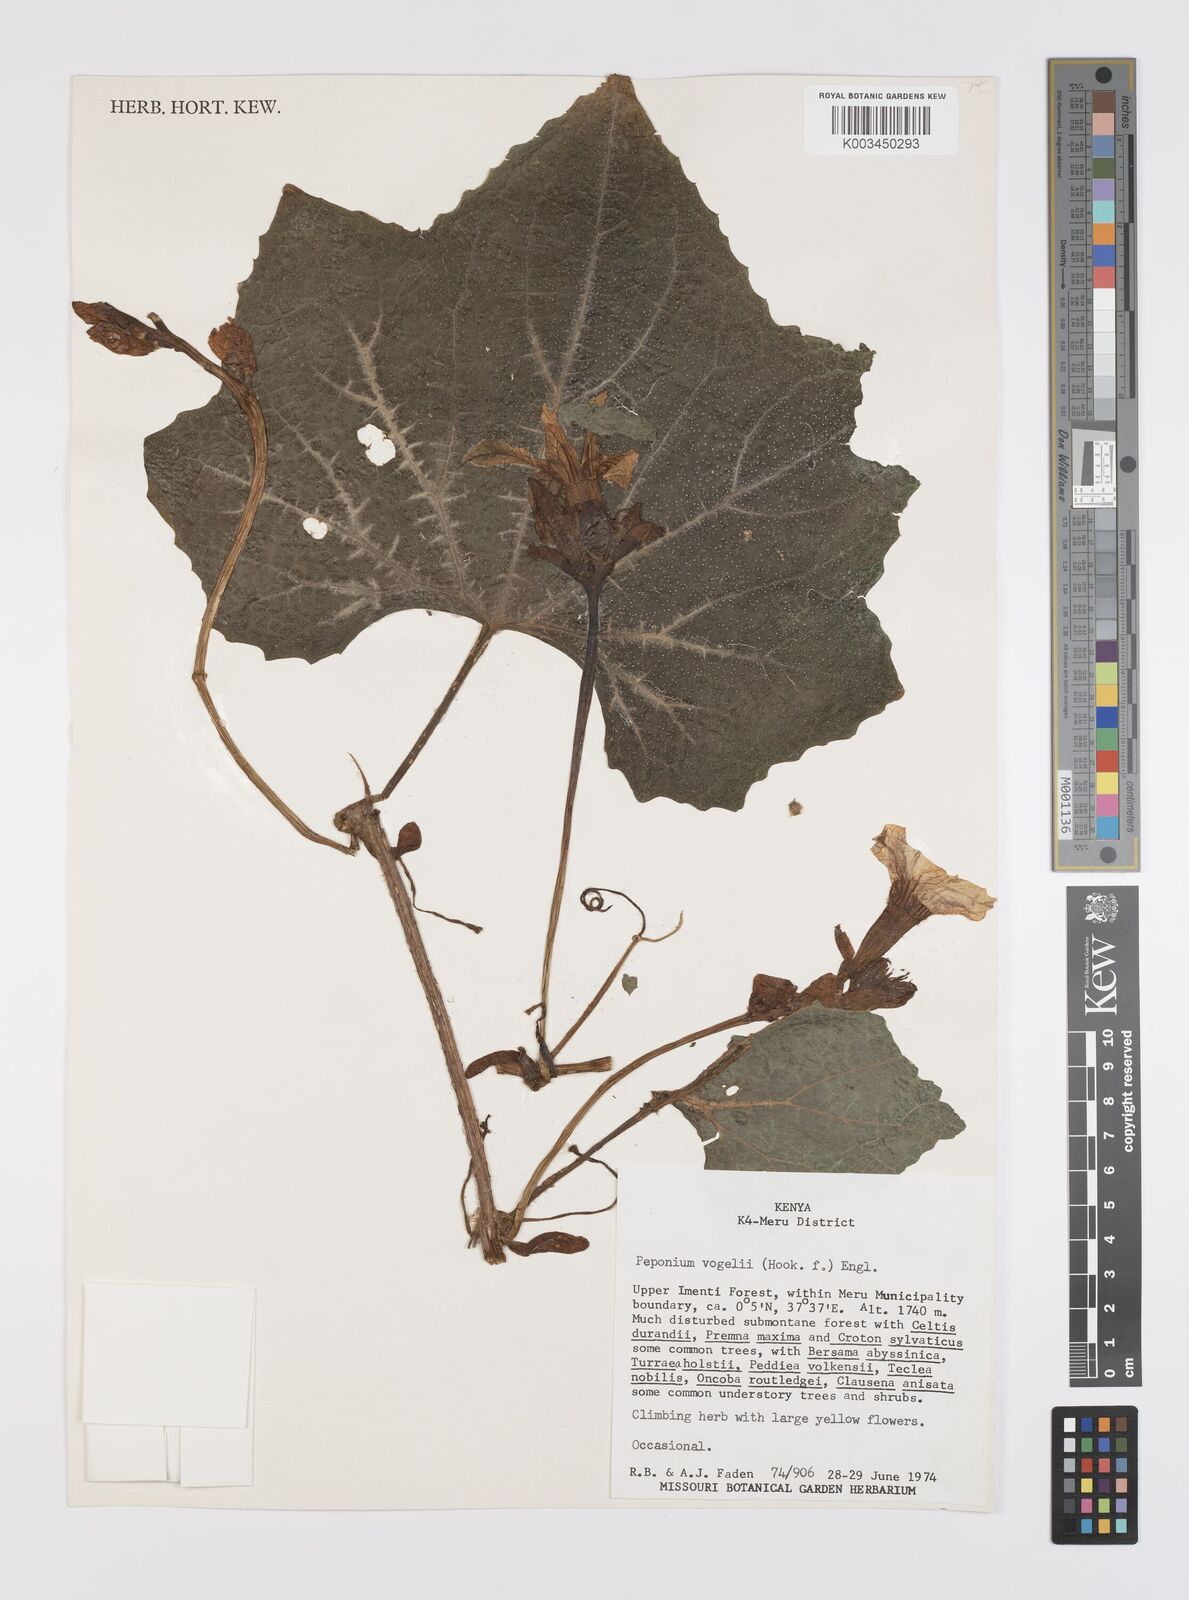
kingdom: Plantae
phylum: Tracheophyta
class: Magnoliopsida
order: Cucurbitales
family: Cucurbitaceae
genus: Peponium
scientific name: Peponium vogelii
